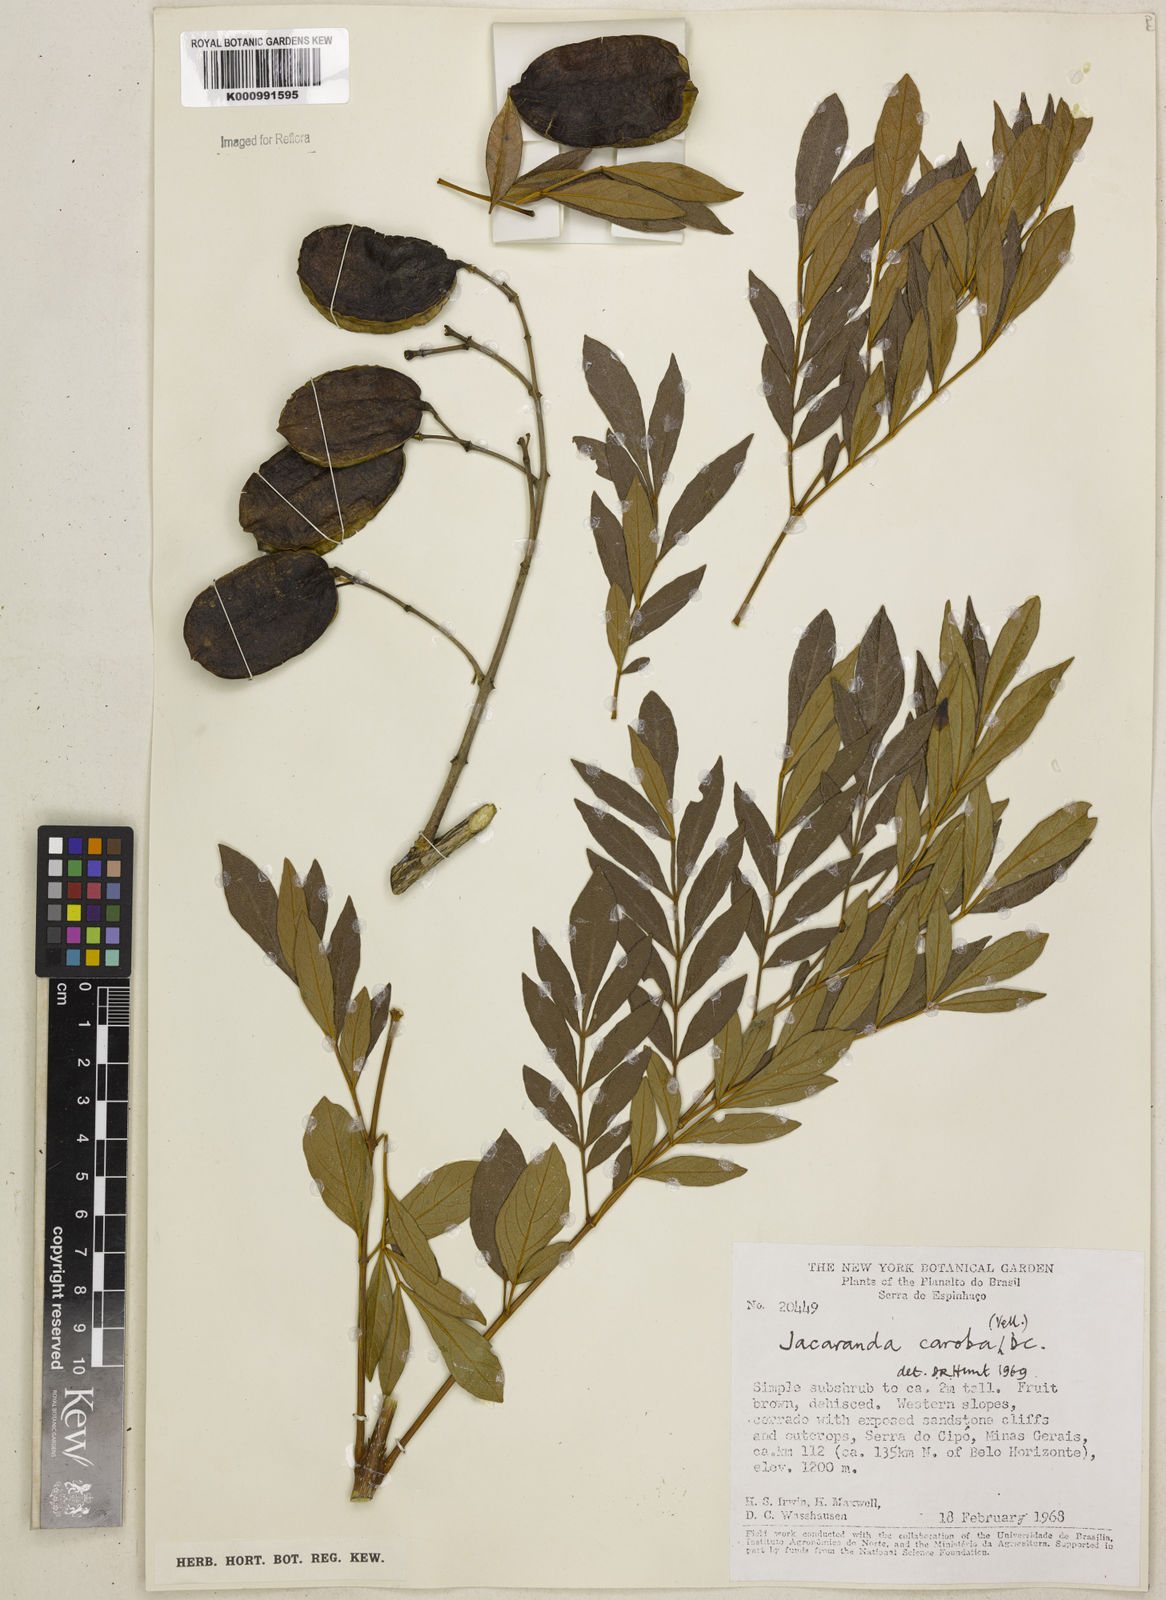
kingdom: Plantae
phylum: Tracheophyta
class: Magnoliopsida
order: Lamiales
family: Bignoniaceae
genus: Jacaranda
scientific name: Jacaranda caroba
